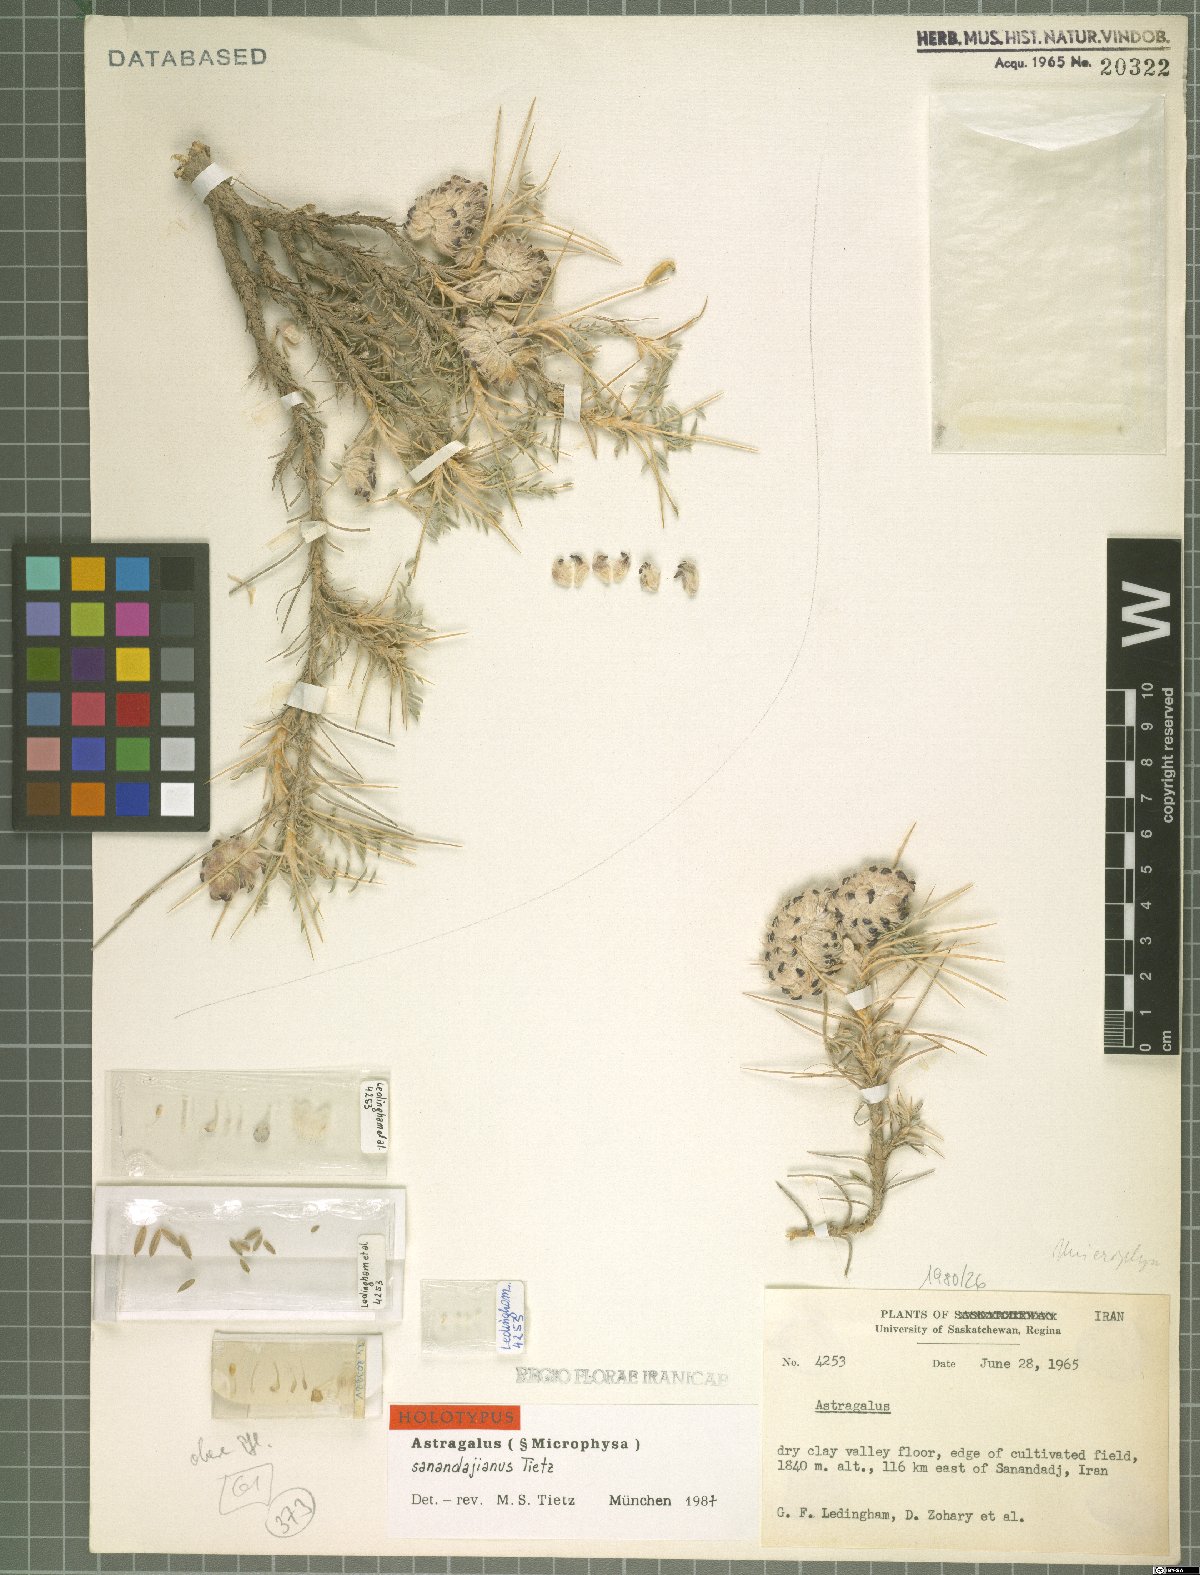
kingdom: Plantae
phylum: Tracheophyta
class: Magnoliopsida
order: Fabales
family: Fabaceae
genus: Astragalus
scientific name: Astragalus sanandajianus
